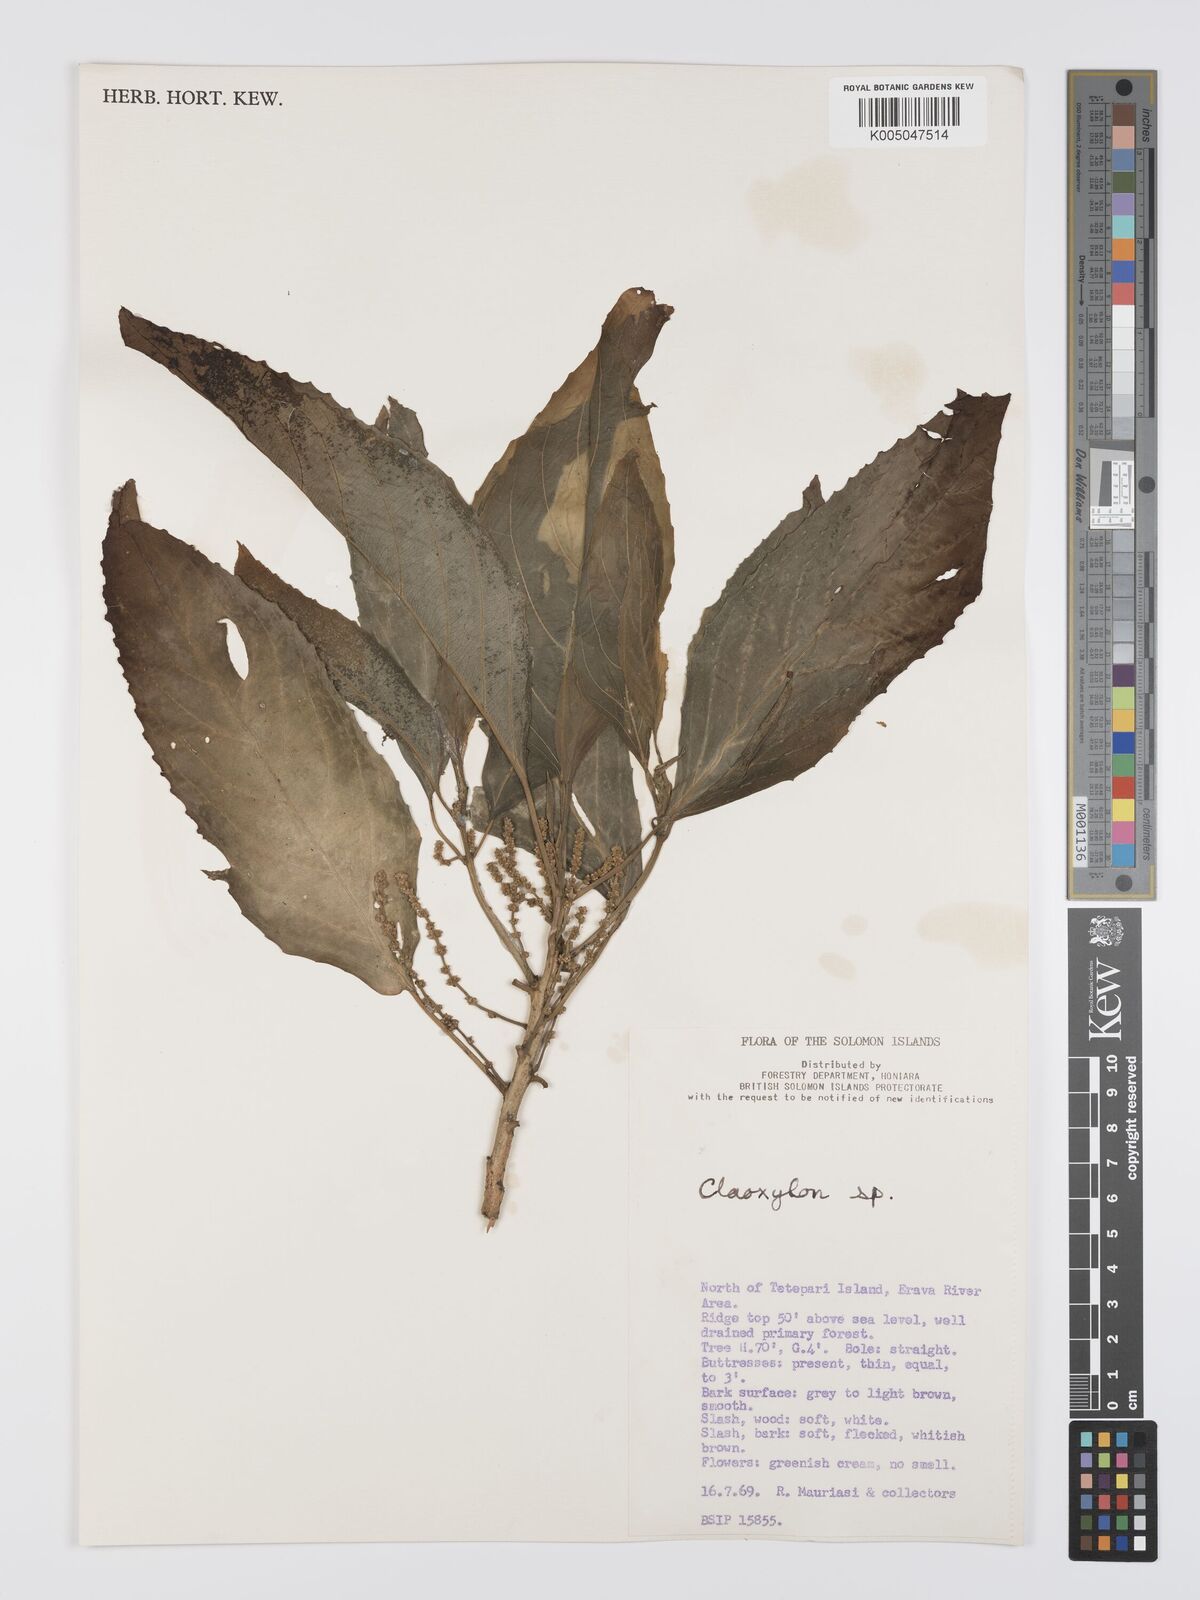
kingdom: Plantae
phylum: Tracheophyta
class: Magnoliopsida
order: Malpighiales
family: Euphorbiaceae
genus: Claoxylon
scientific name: Claoxylon carolinianum
